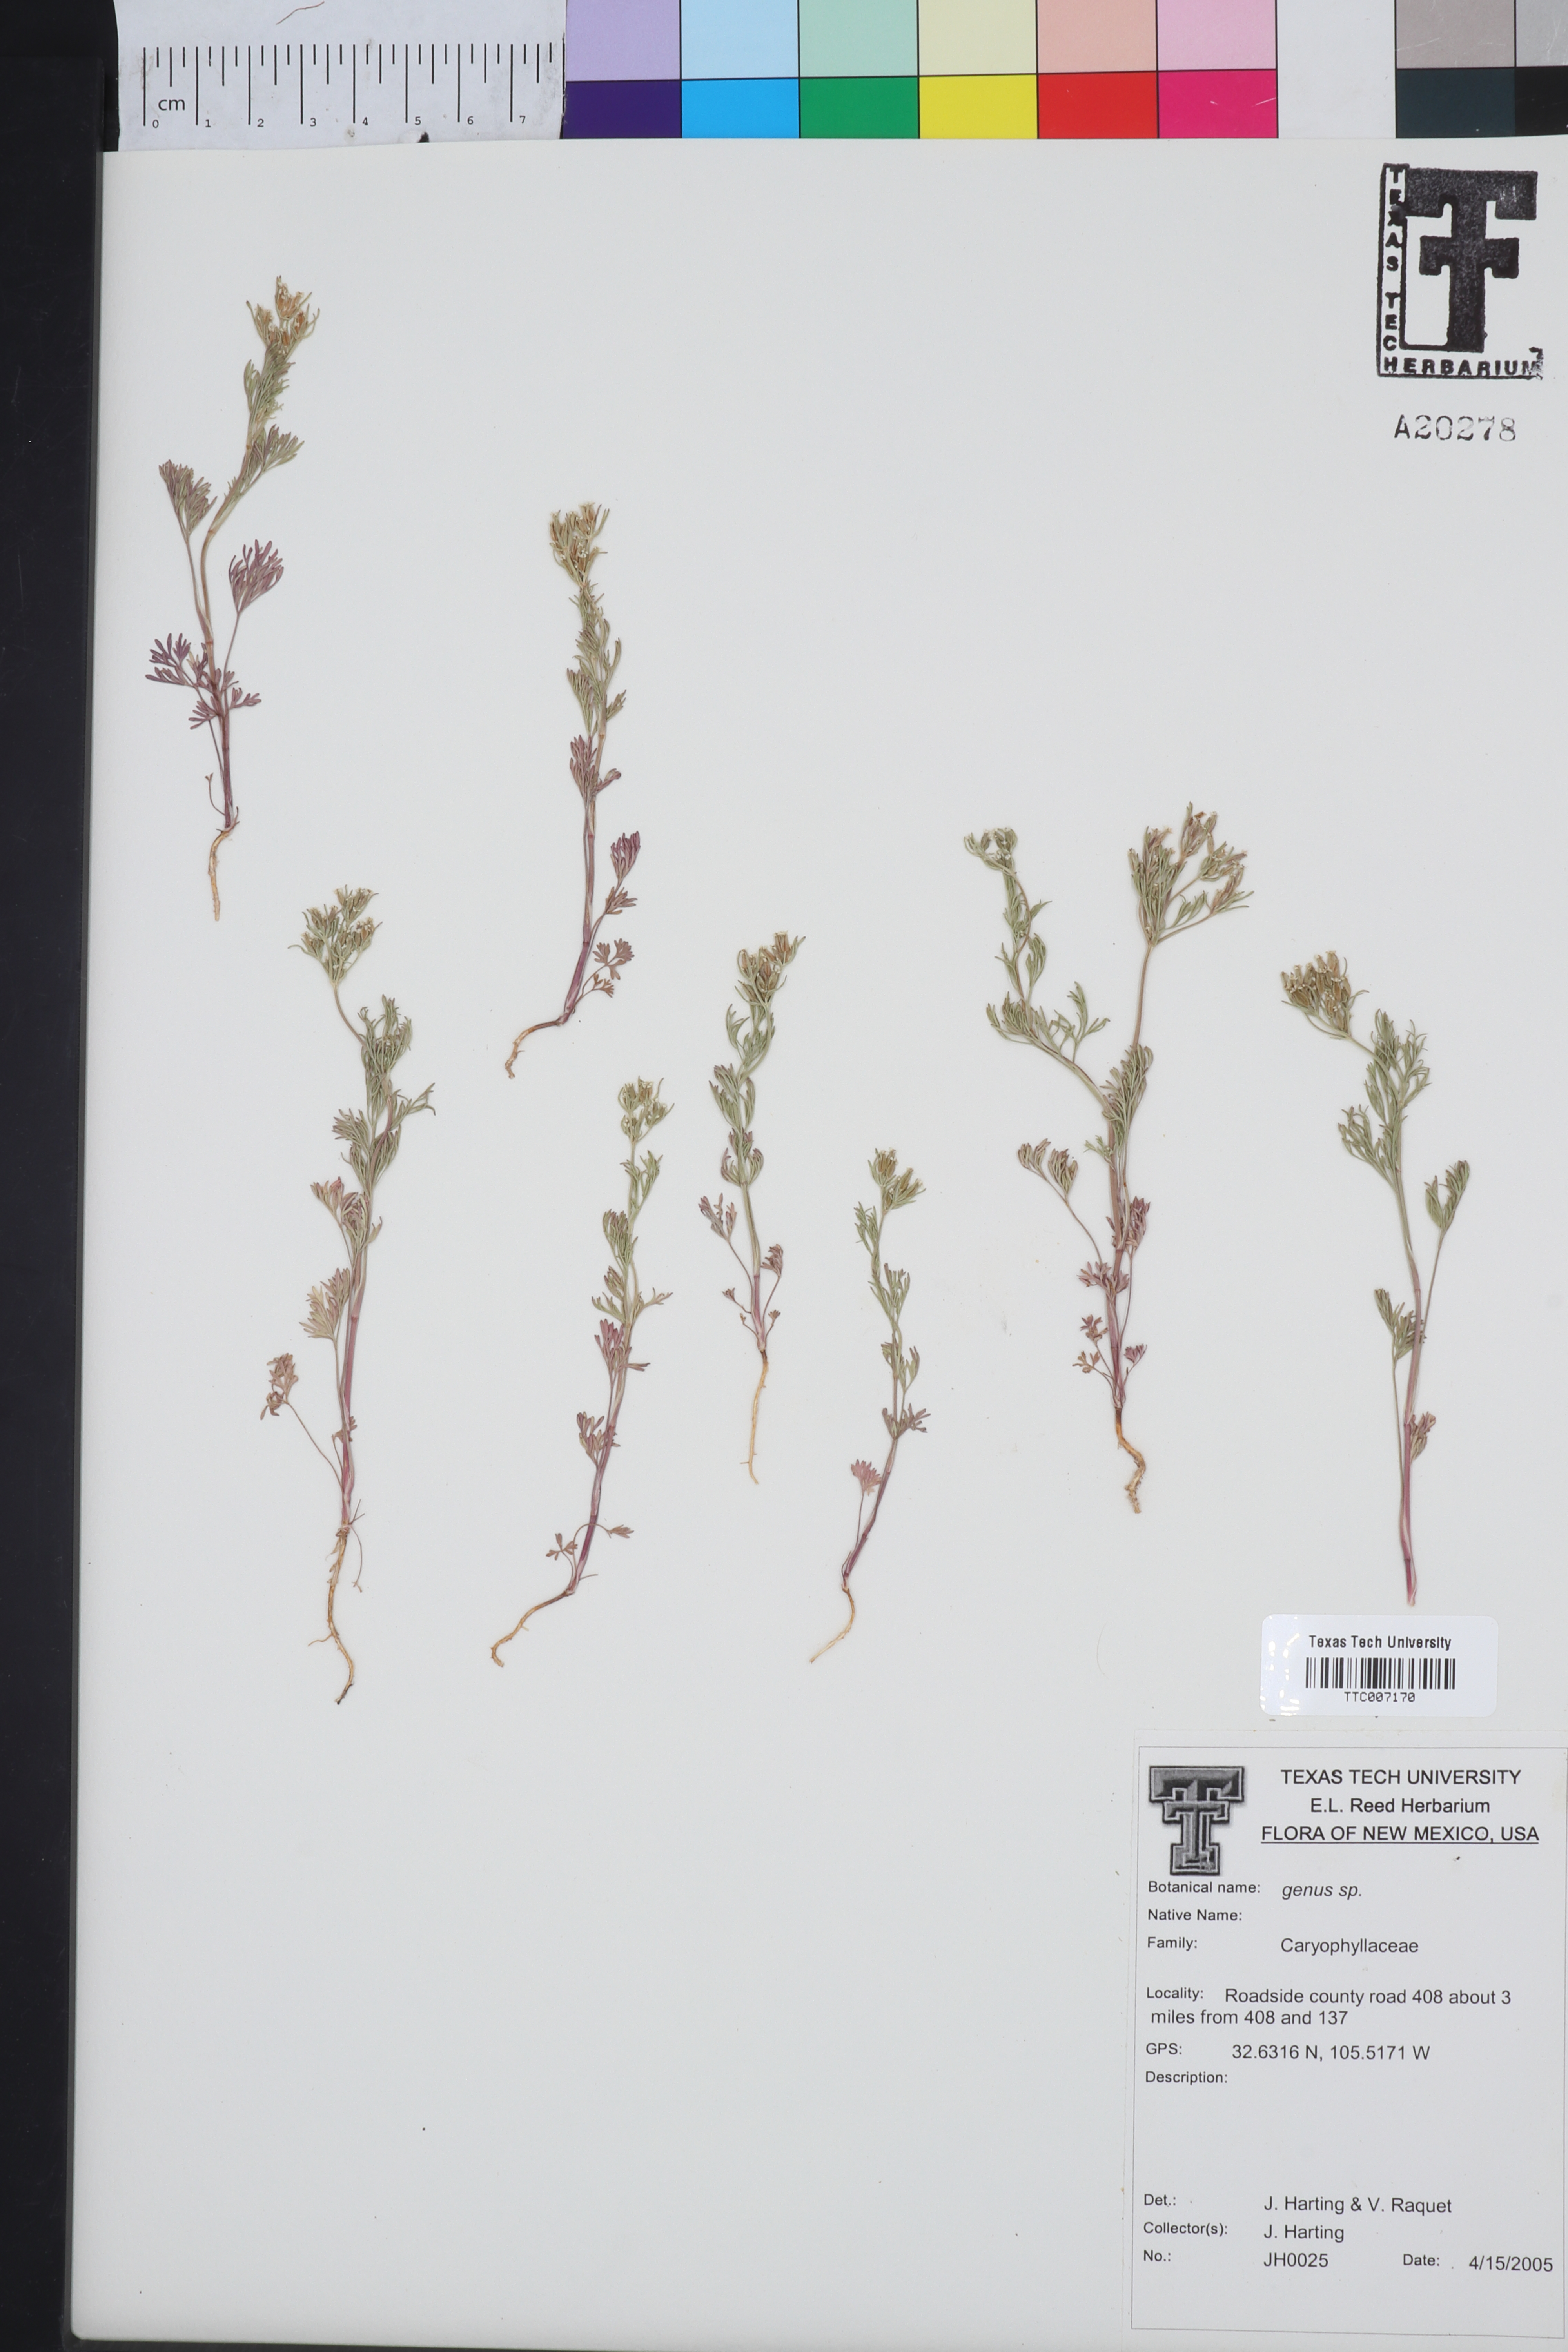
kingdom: Plantae
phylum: Tracheophyta
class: Magnoliopsida
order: Caryophyllales
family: Caryophyllaceae
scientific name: Caryophyllaceae
